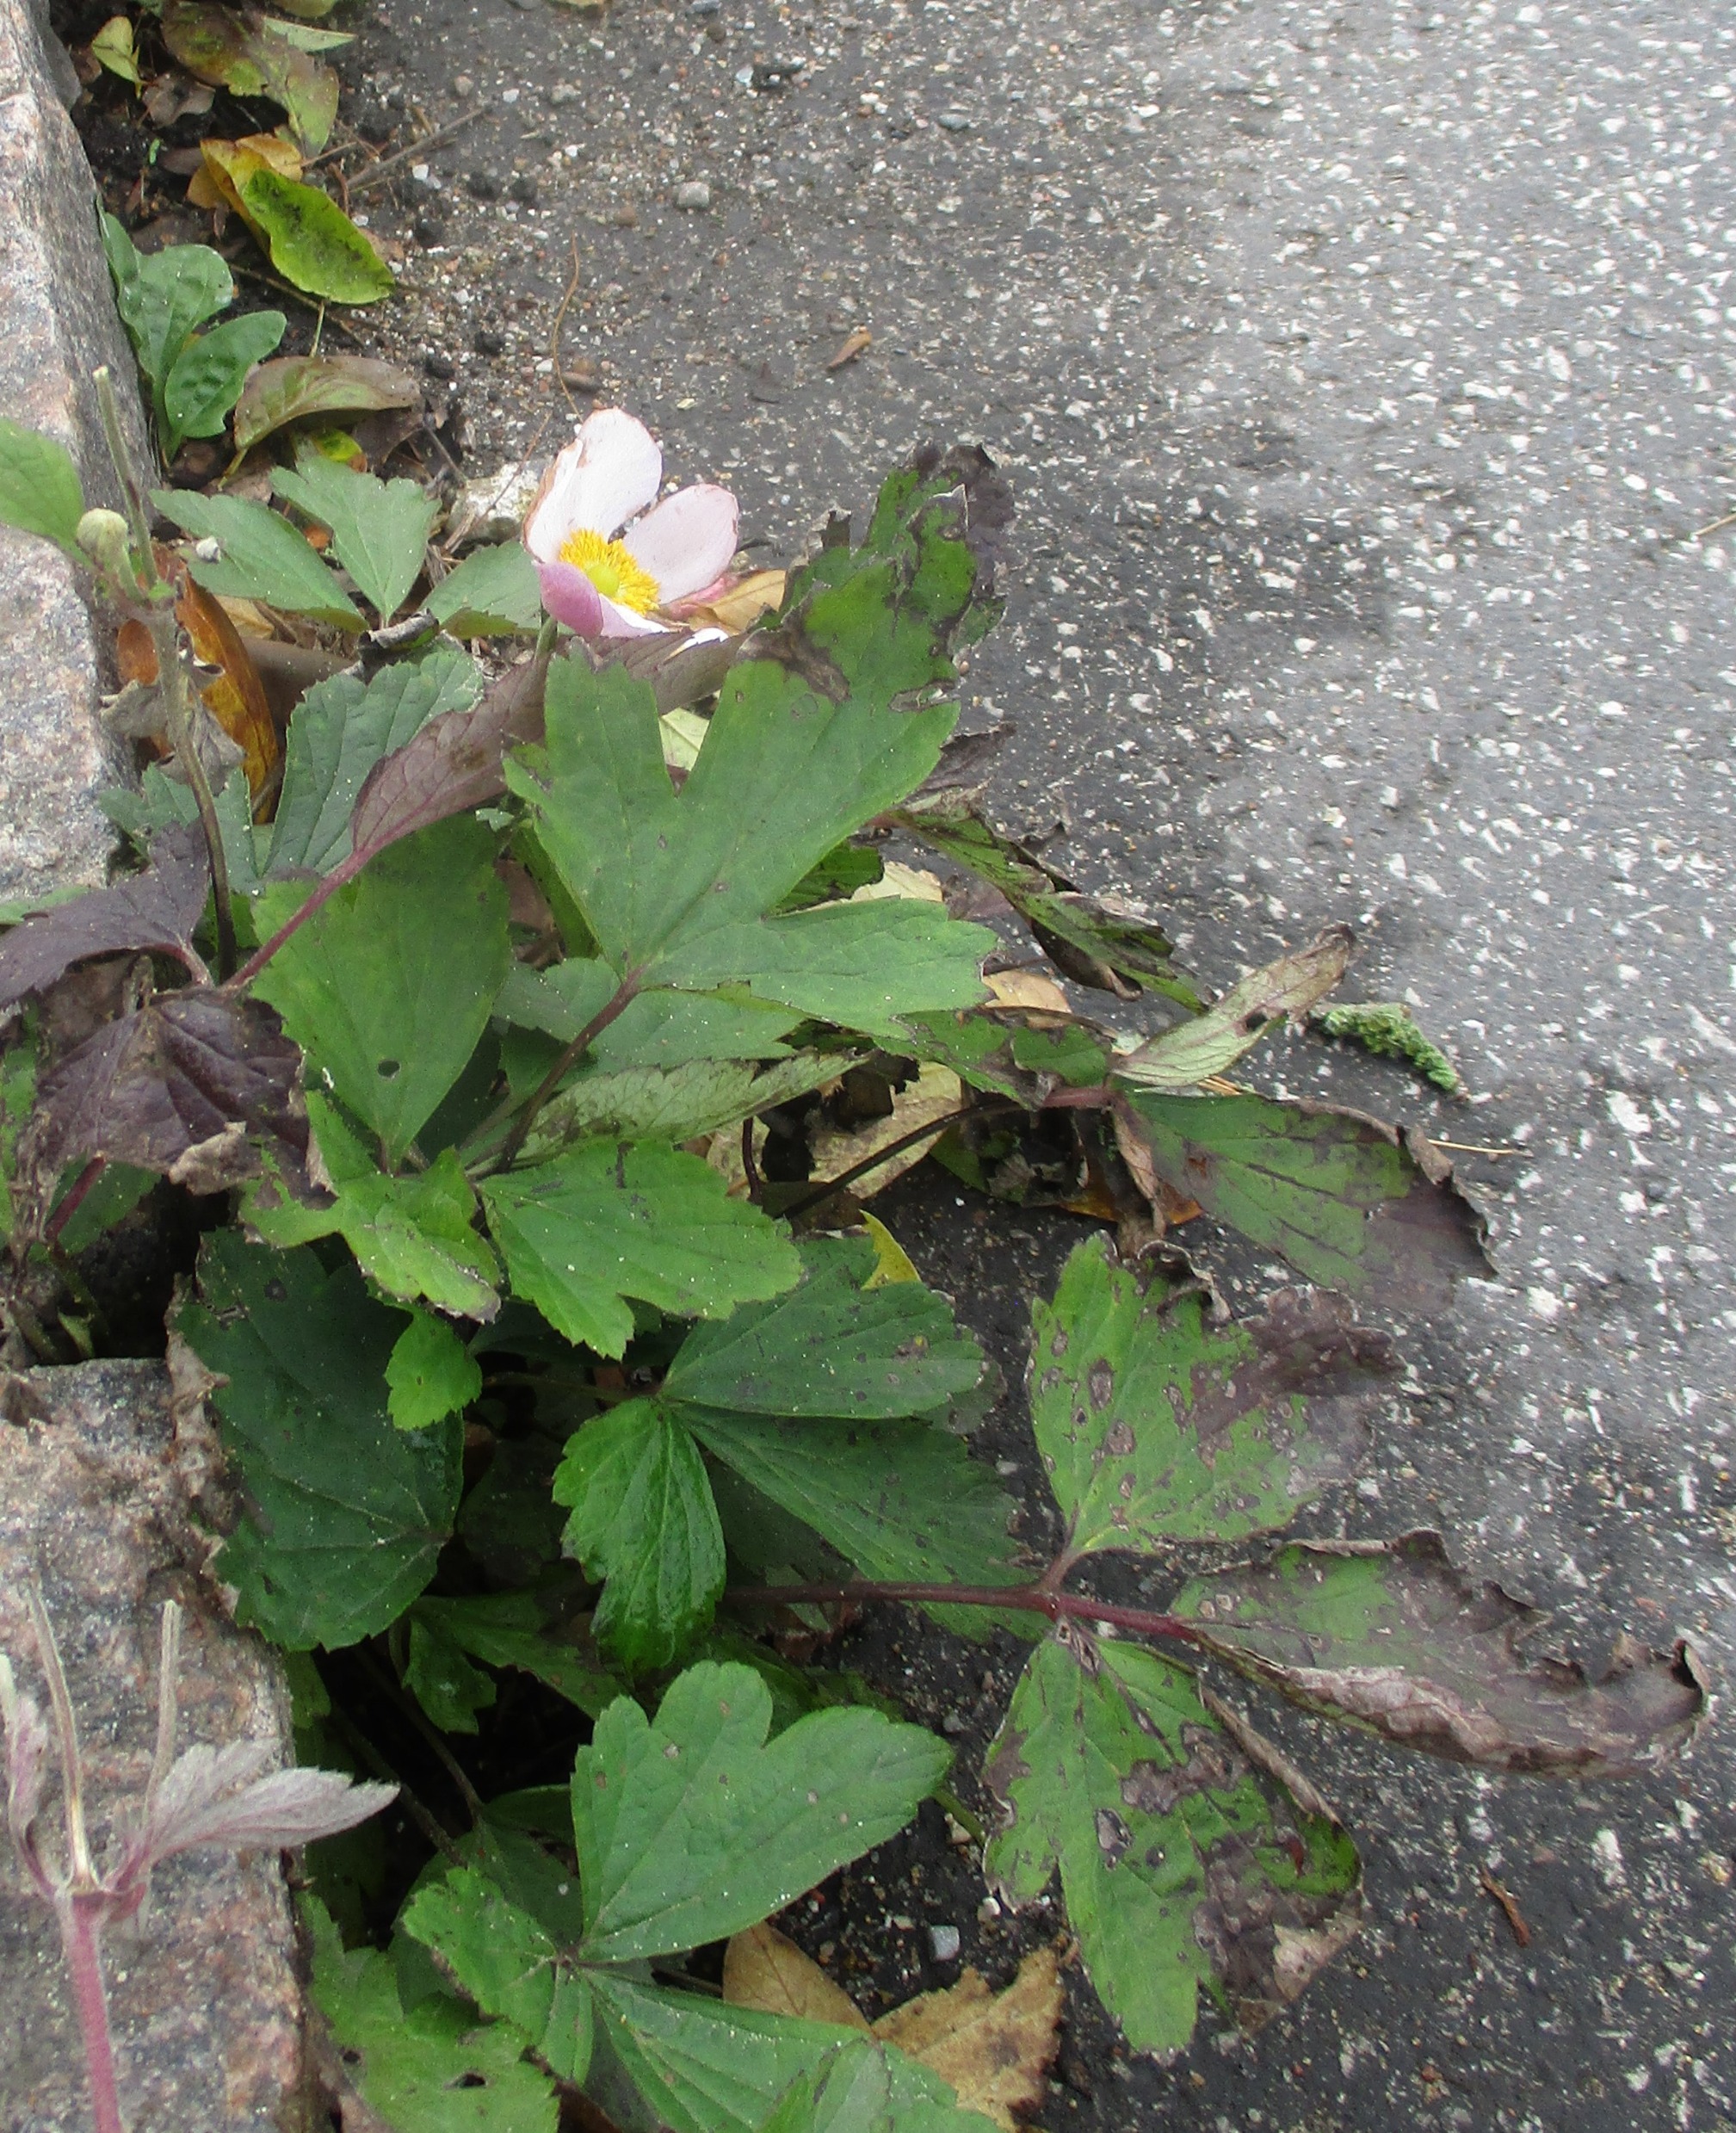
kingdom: Plantae
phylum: Tracheophyta
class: Magnoliopsida
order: Ranunculales
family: Ranunculaceae
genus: Eriocapitella
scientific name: Eriocapitella hupehensis
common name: Høst-anemone
